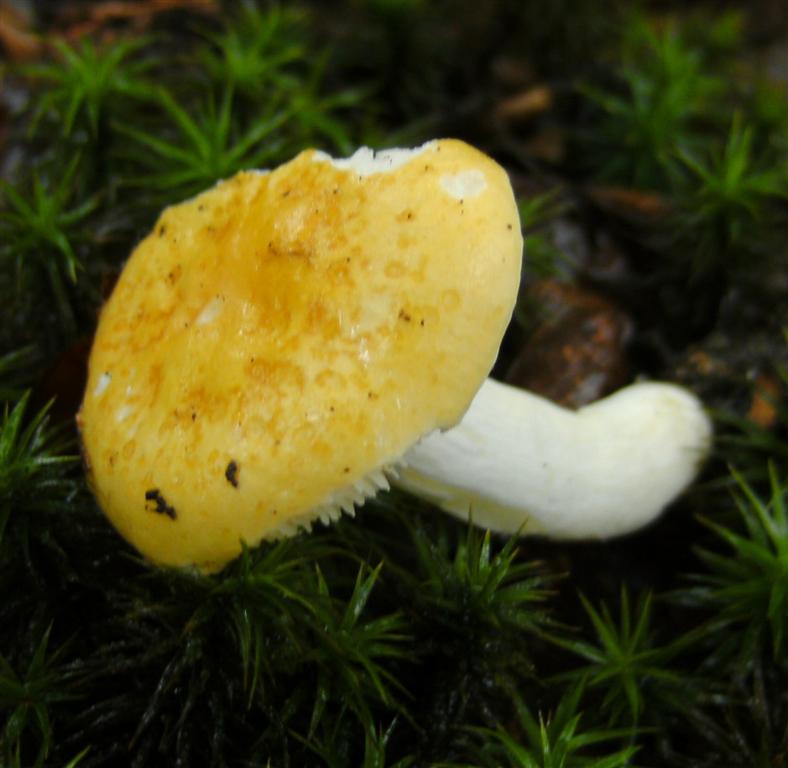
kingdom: Fungi
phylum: Basidiomycota
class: Agaricomycetes
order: Russulales
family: Russulaceae
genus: Russula
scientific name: Russula risigallina
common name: abrikos-skørhat
